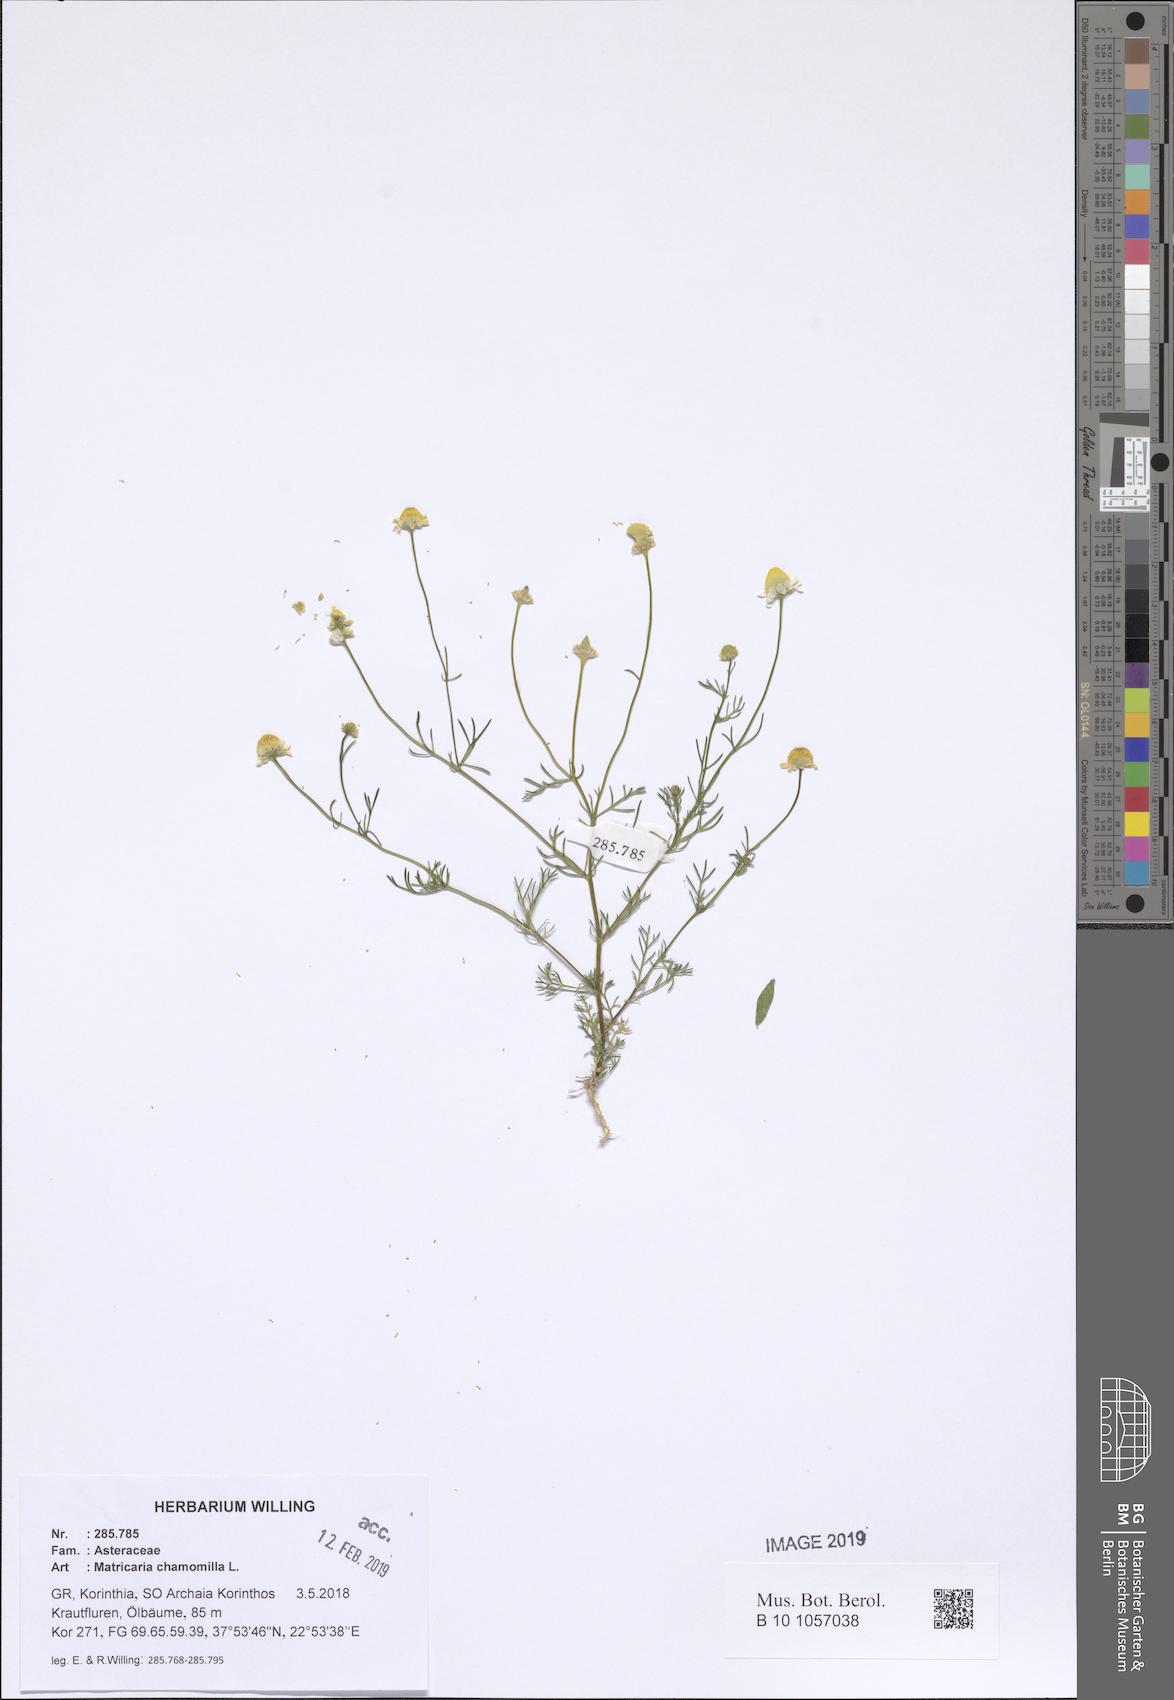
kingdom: Plantae
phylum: Tracheophyta
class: Magnoliopsida
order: Asterales
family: Asteraceae
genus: Matricaria
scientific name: Matricaria chamomilla
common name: Scented mayweed
